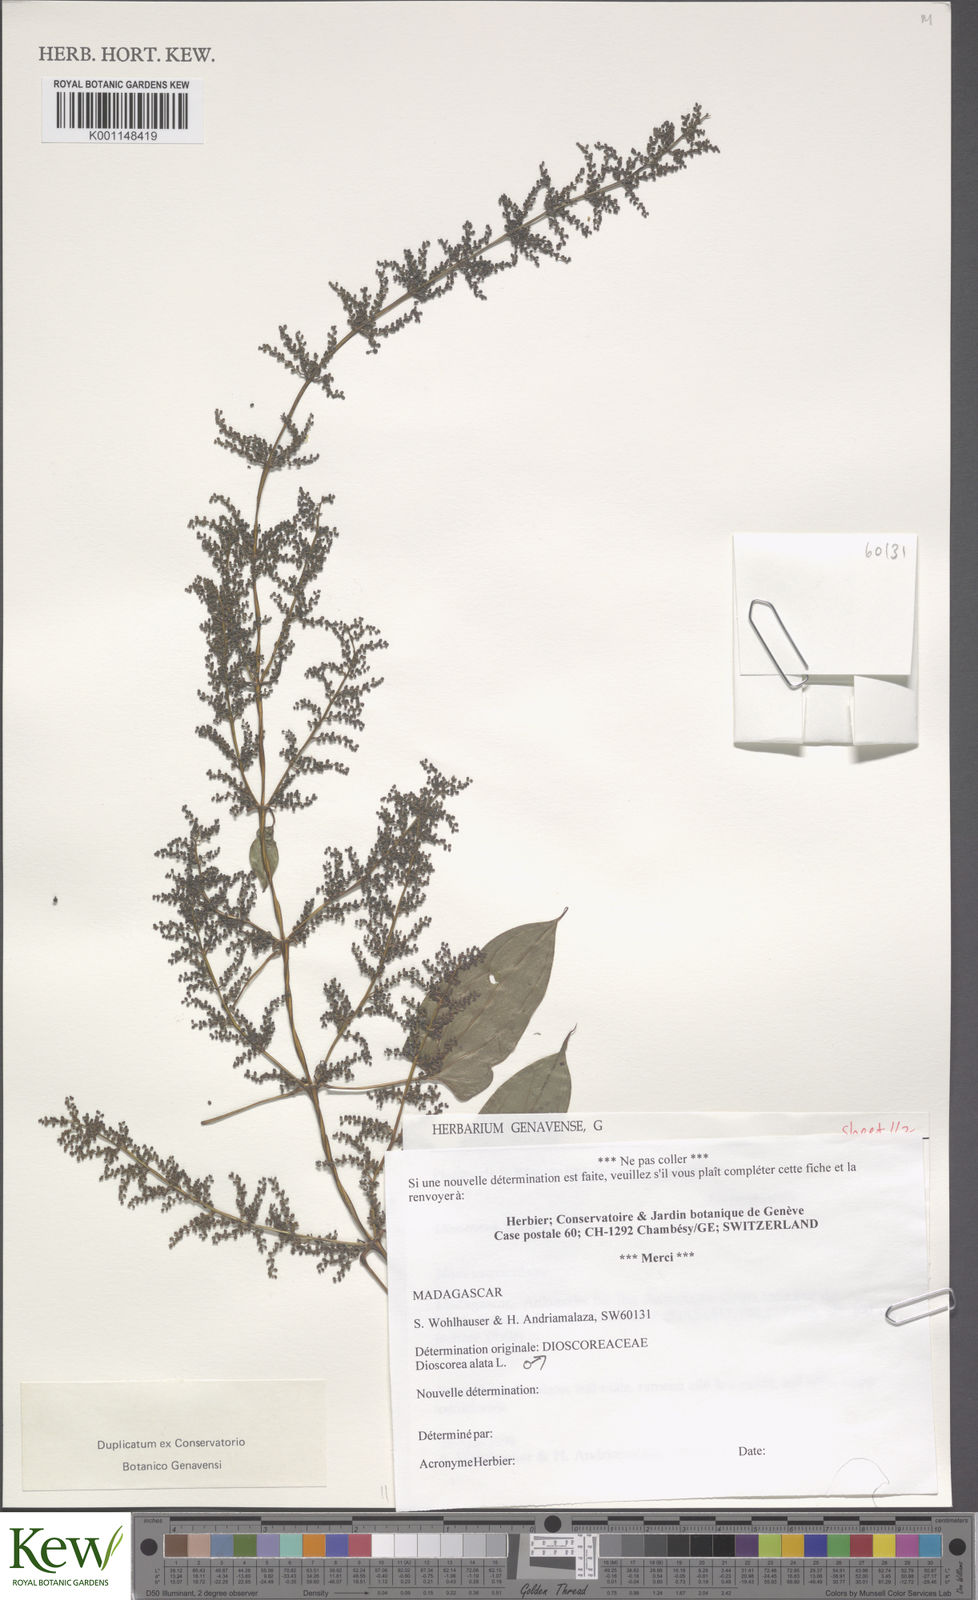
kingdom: Plantae
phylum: Tracheophyta
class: Liliopsida
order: Dioscoreales
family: Dioscoreaceae
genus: Dioscorea
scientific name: Dioscorea alata
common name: Water yam
